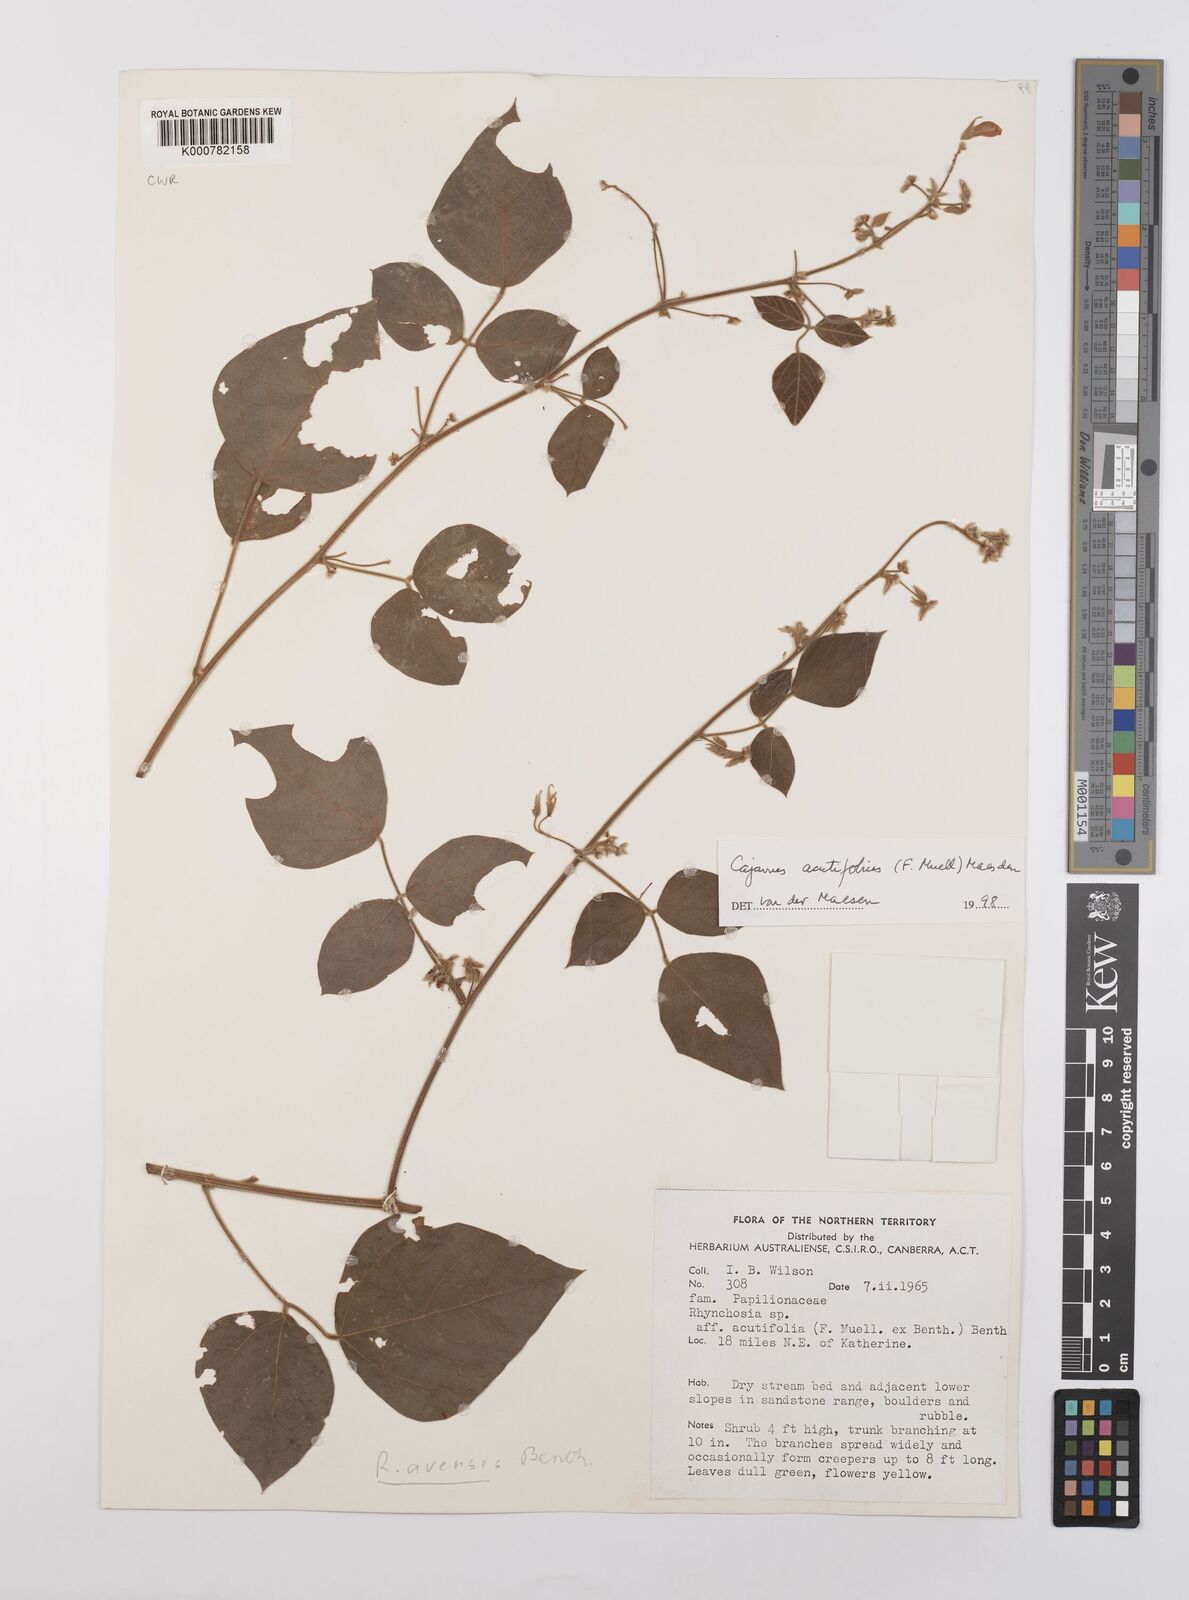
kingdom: Plantae
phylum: Tracheophyta
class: Magnoliopsida
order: Fabales
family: Fabaceae
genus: Cajanus
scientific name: Cajanus acutifolius
